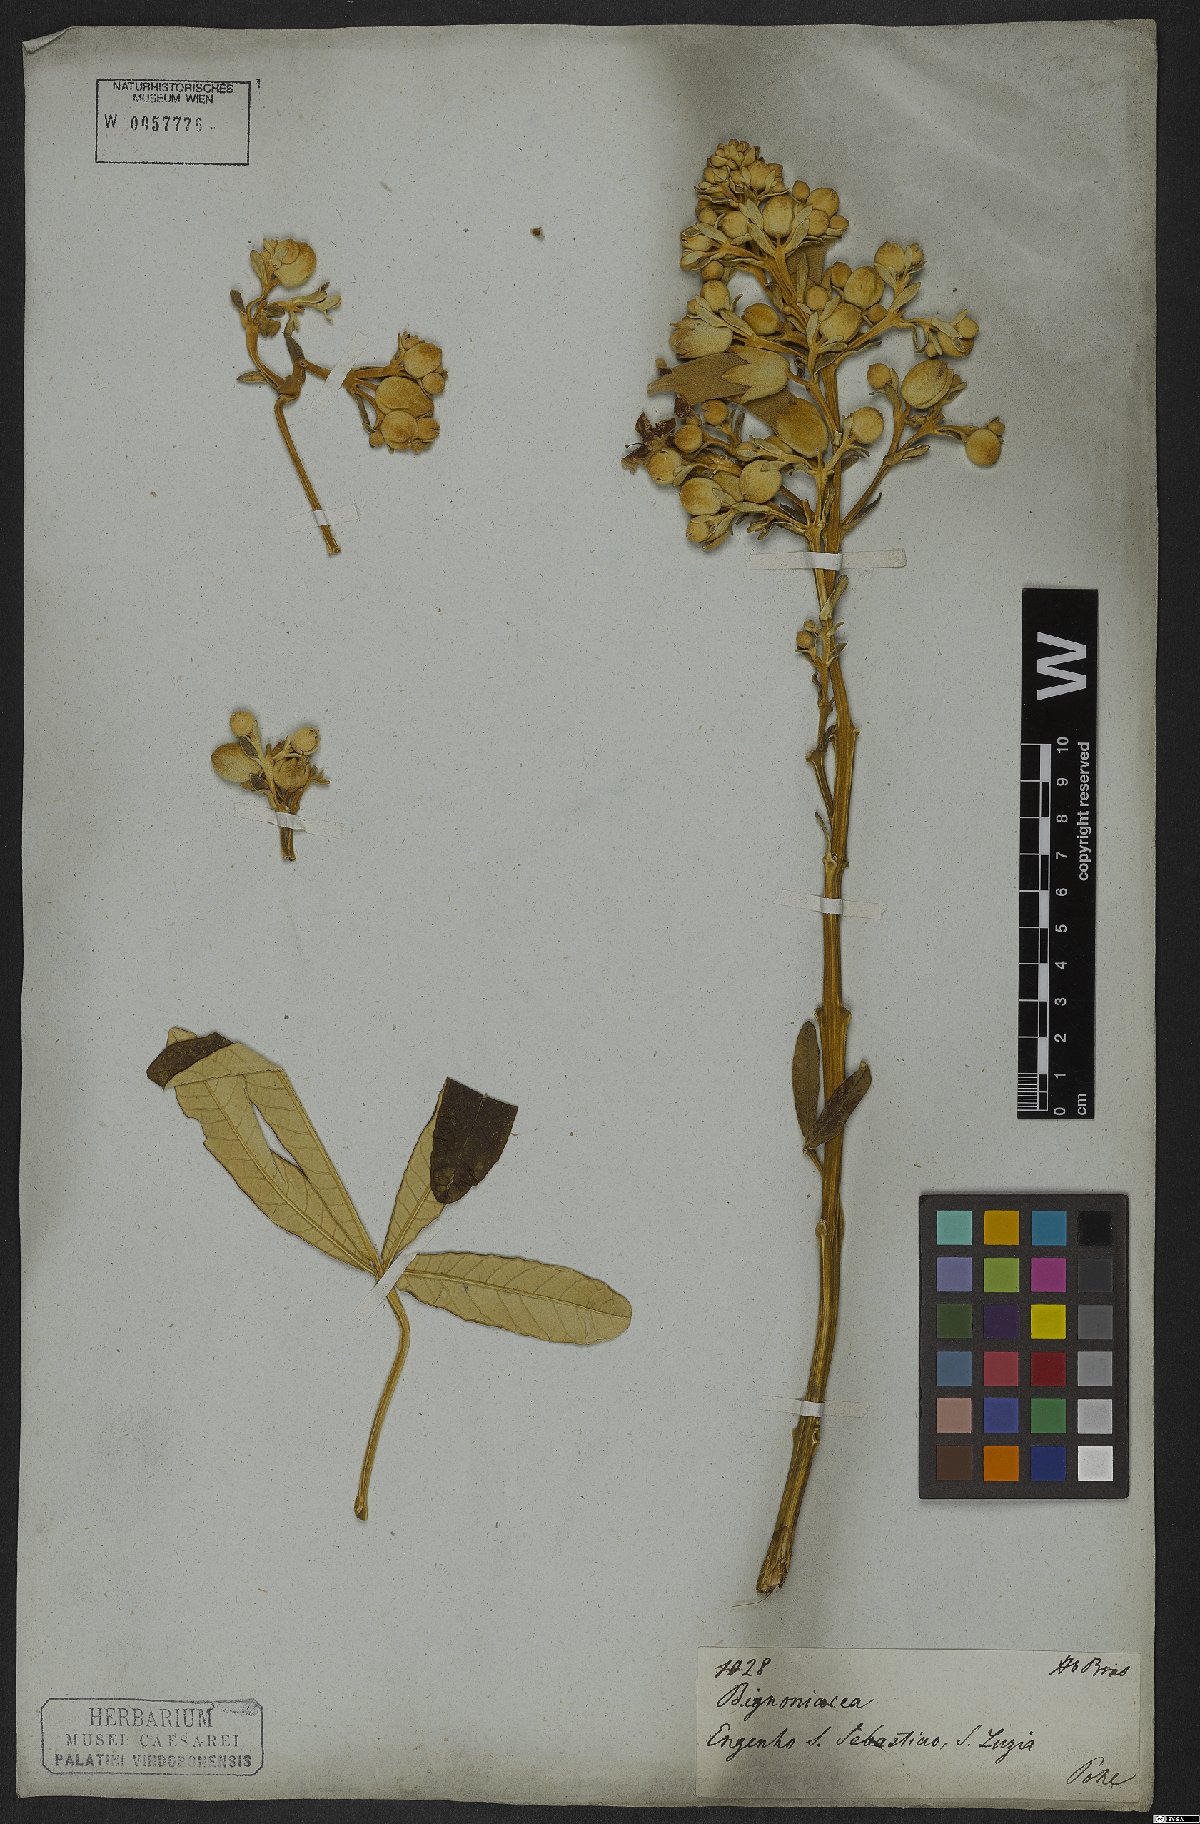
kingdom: Plantae
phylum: Tracheophyta
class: Magnoliopsida
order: Lamiales
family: Bignoniaceae
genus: Zeyheria
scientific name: Zeyheria montana
